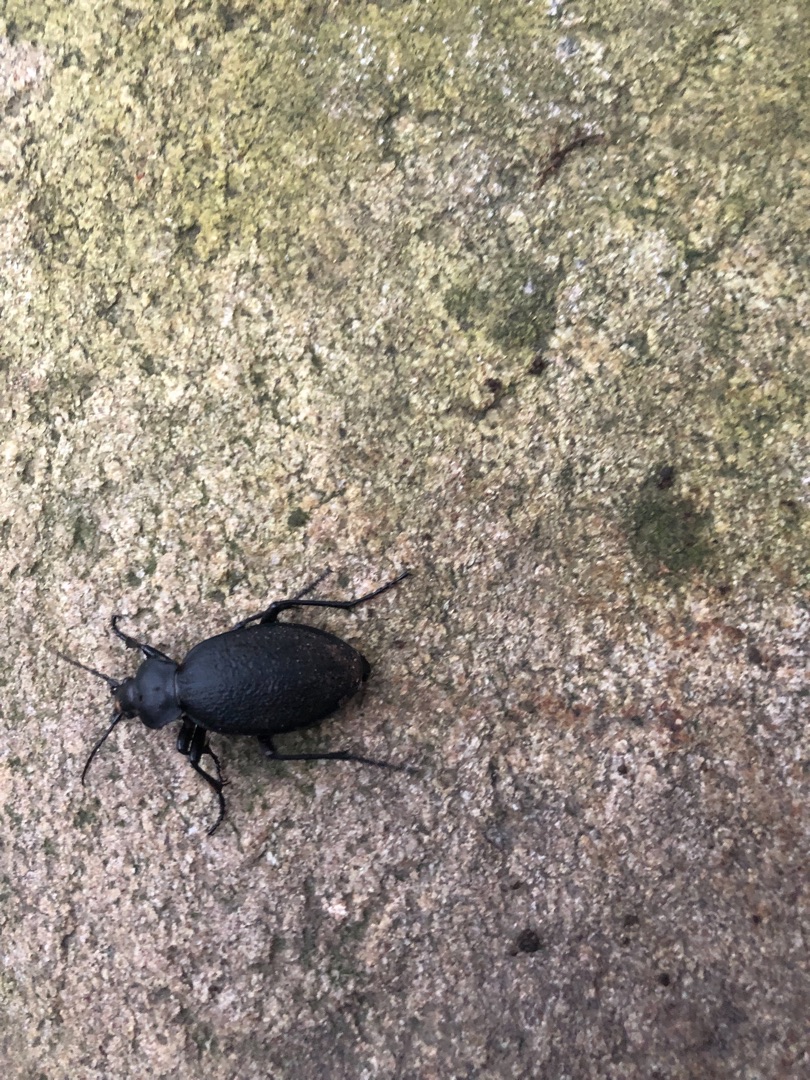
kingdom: Animalia
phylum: Arthropoda
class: Insecta
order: Coleoptera
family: Carabidae
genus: Carabus
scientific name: Carabus coriaceus
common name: Læderløber
